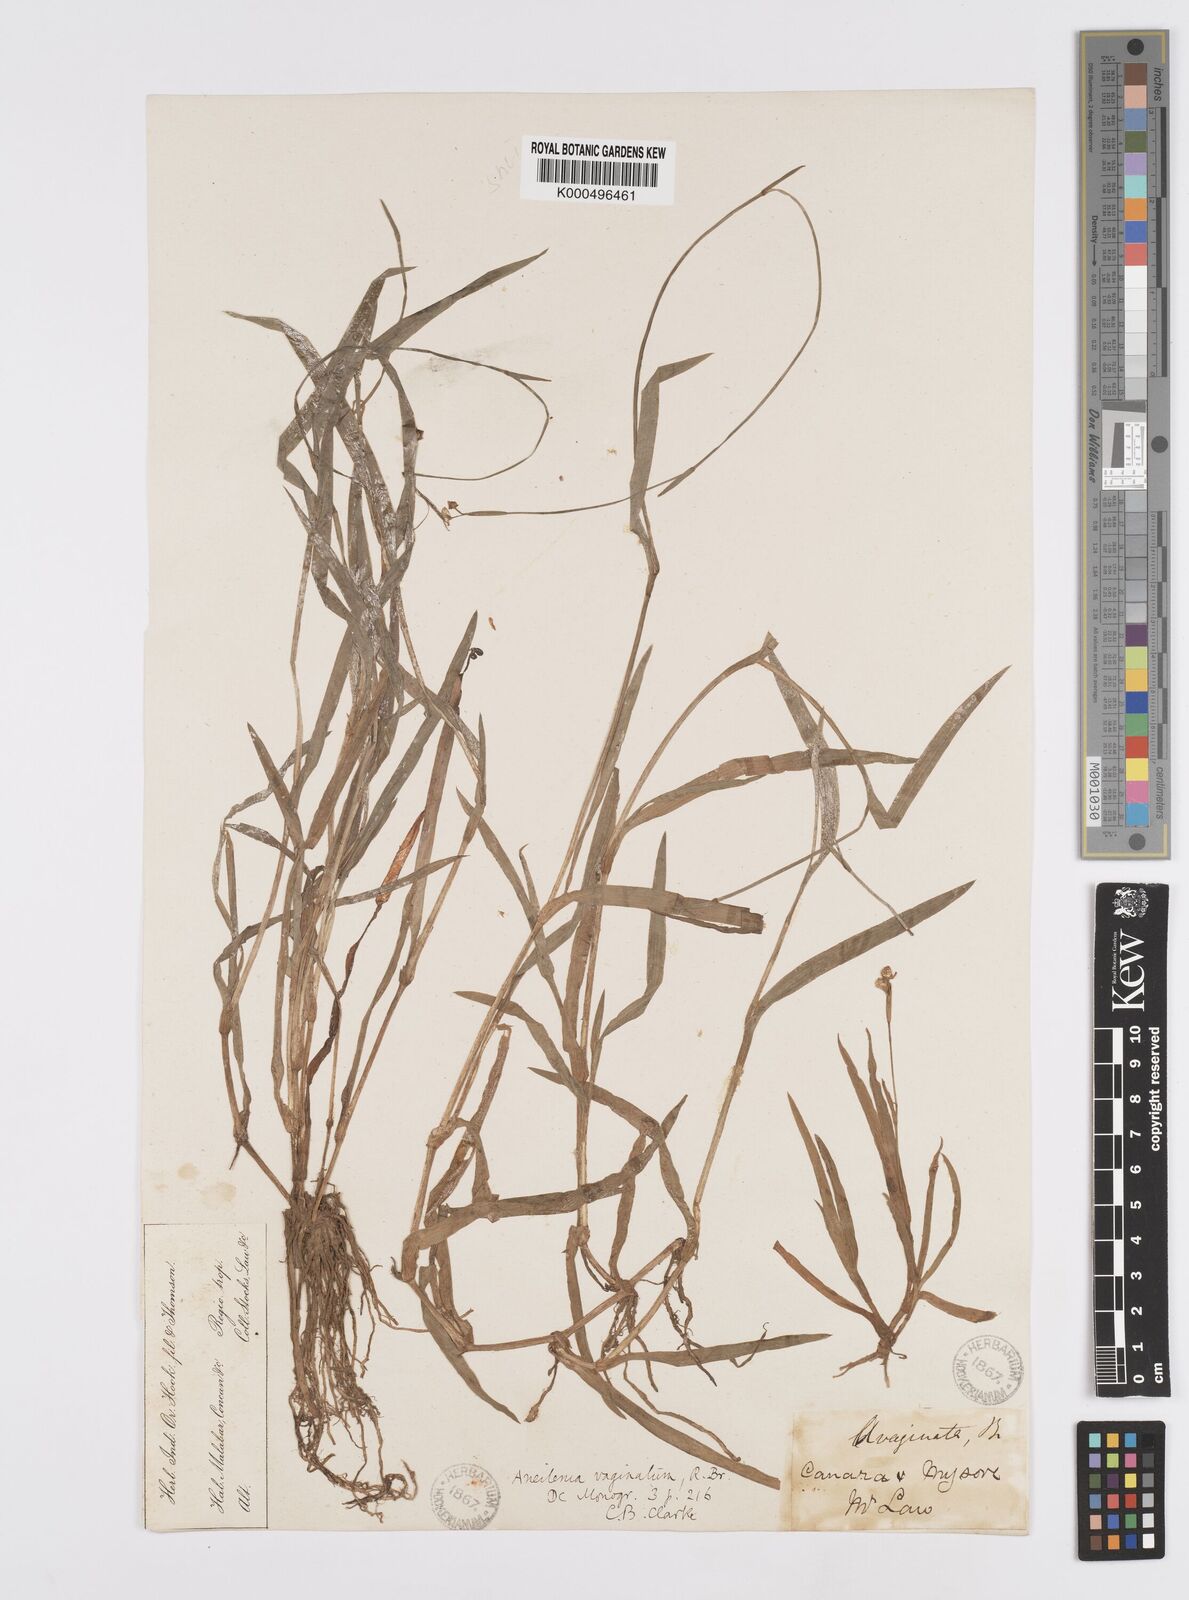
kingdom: Plantae
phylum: Tracheophyta
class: Liliopsida
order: Commelinales
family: Commelinaceae
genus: Murdannia
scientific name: Murdannia
